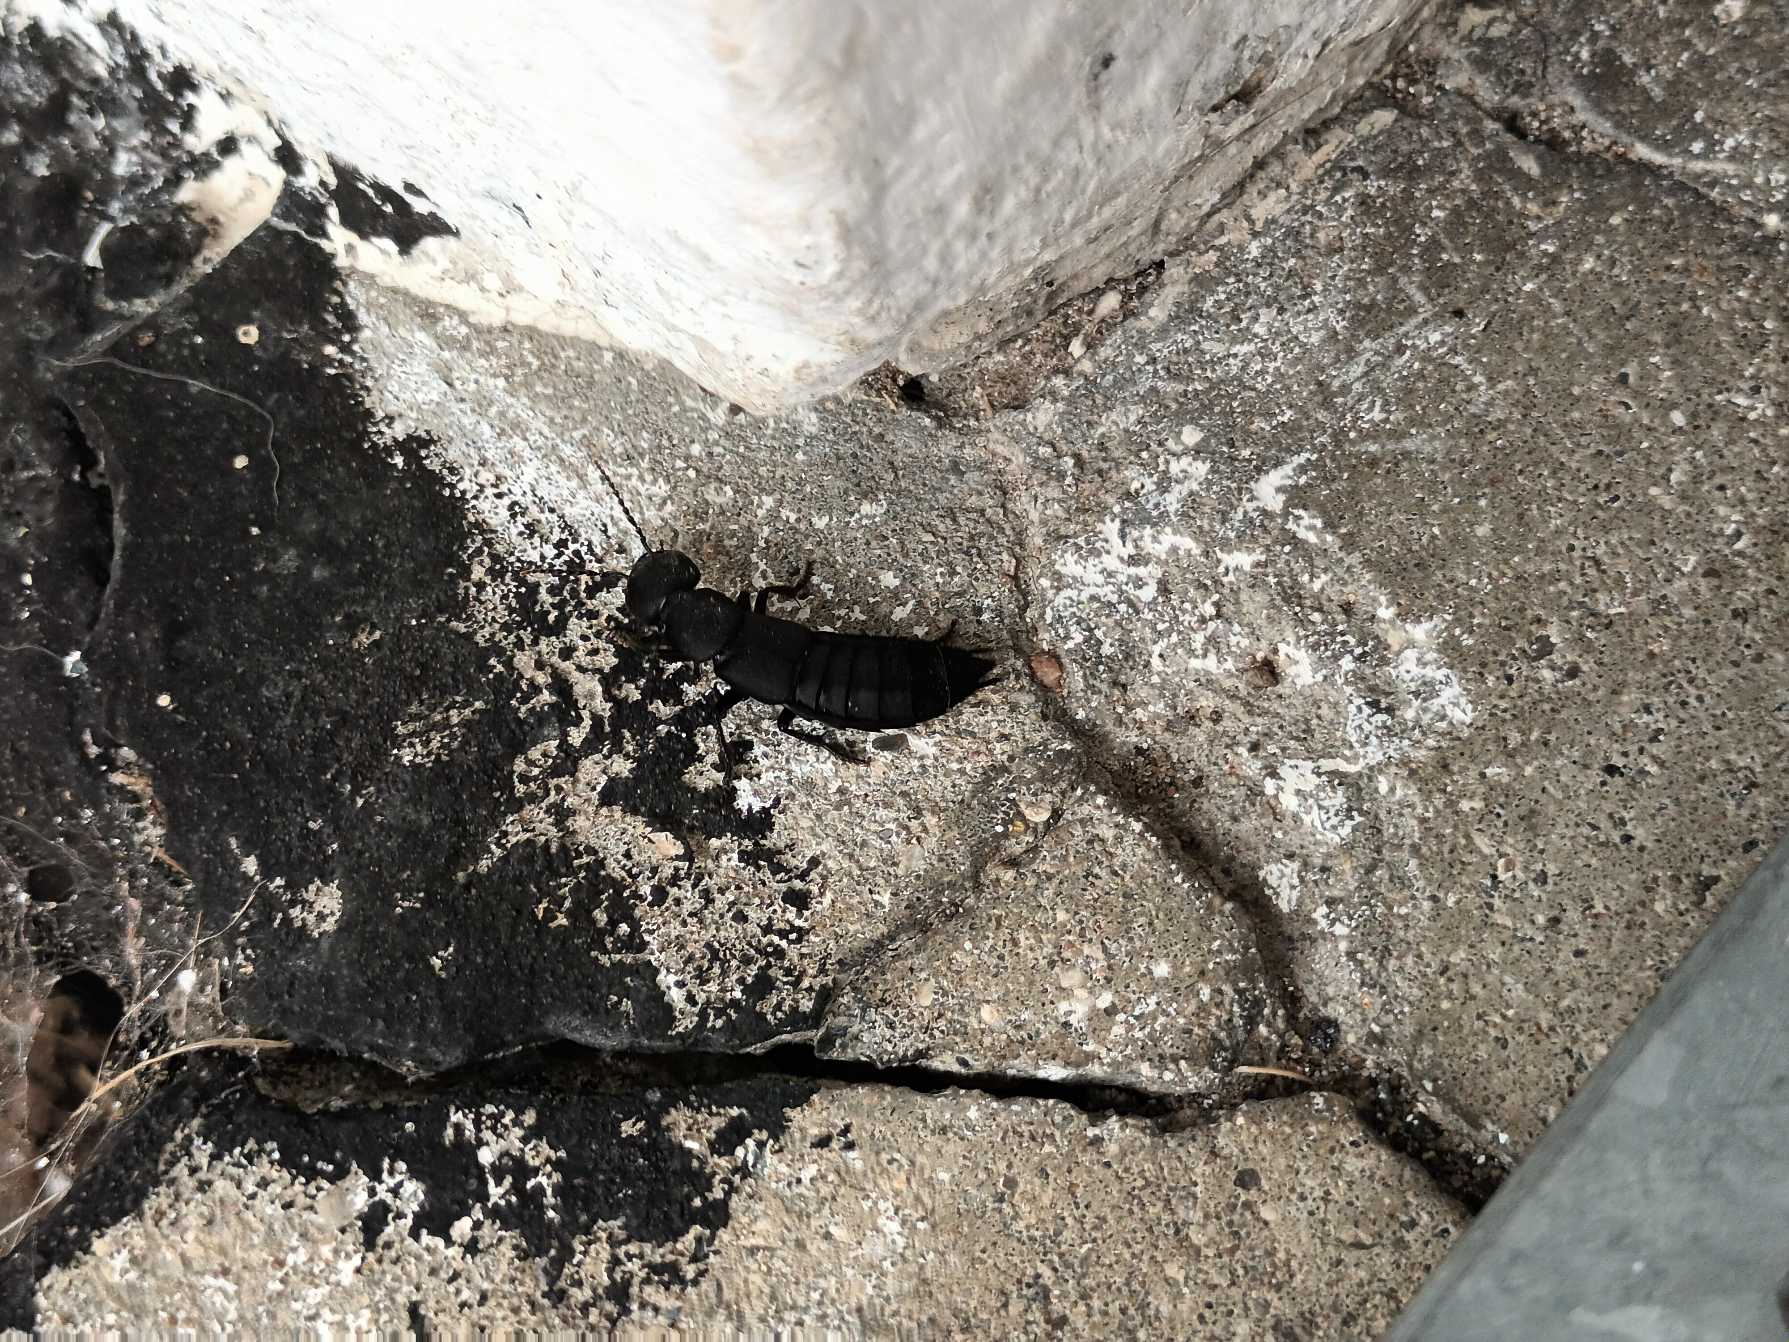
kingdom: Animalia
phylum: Arthropoda
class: Insecta
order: Coleoptera
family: Staphylinidae
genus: Ocypus
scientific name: Ocypus olens
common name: Stor rovbille
